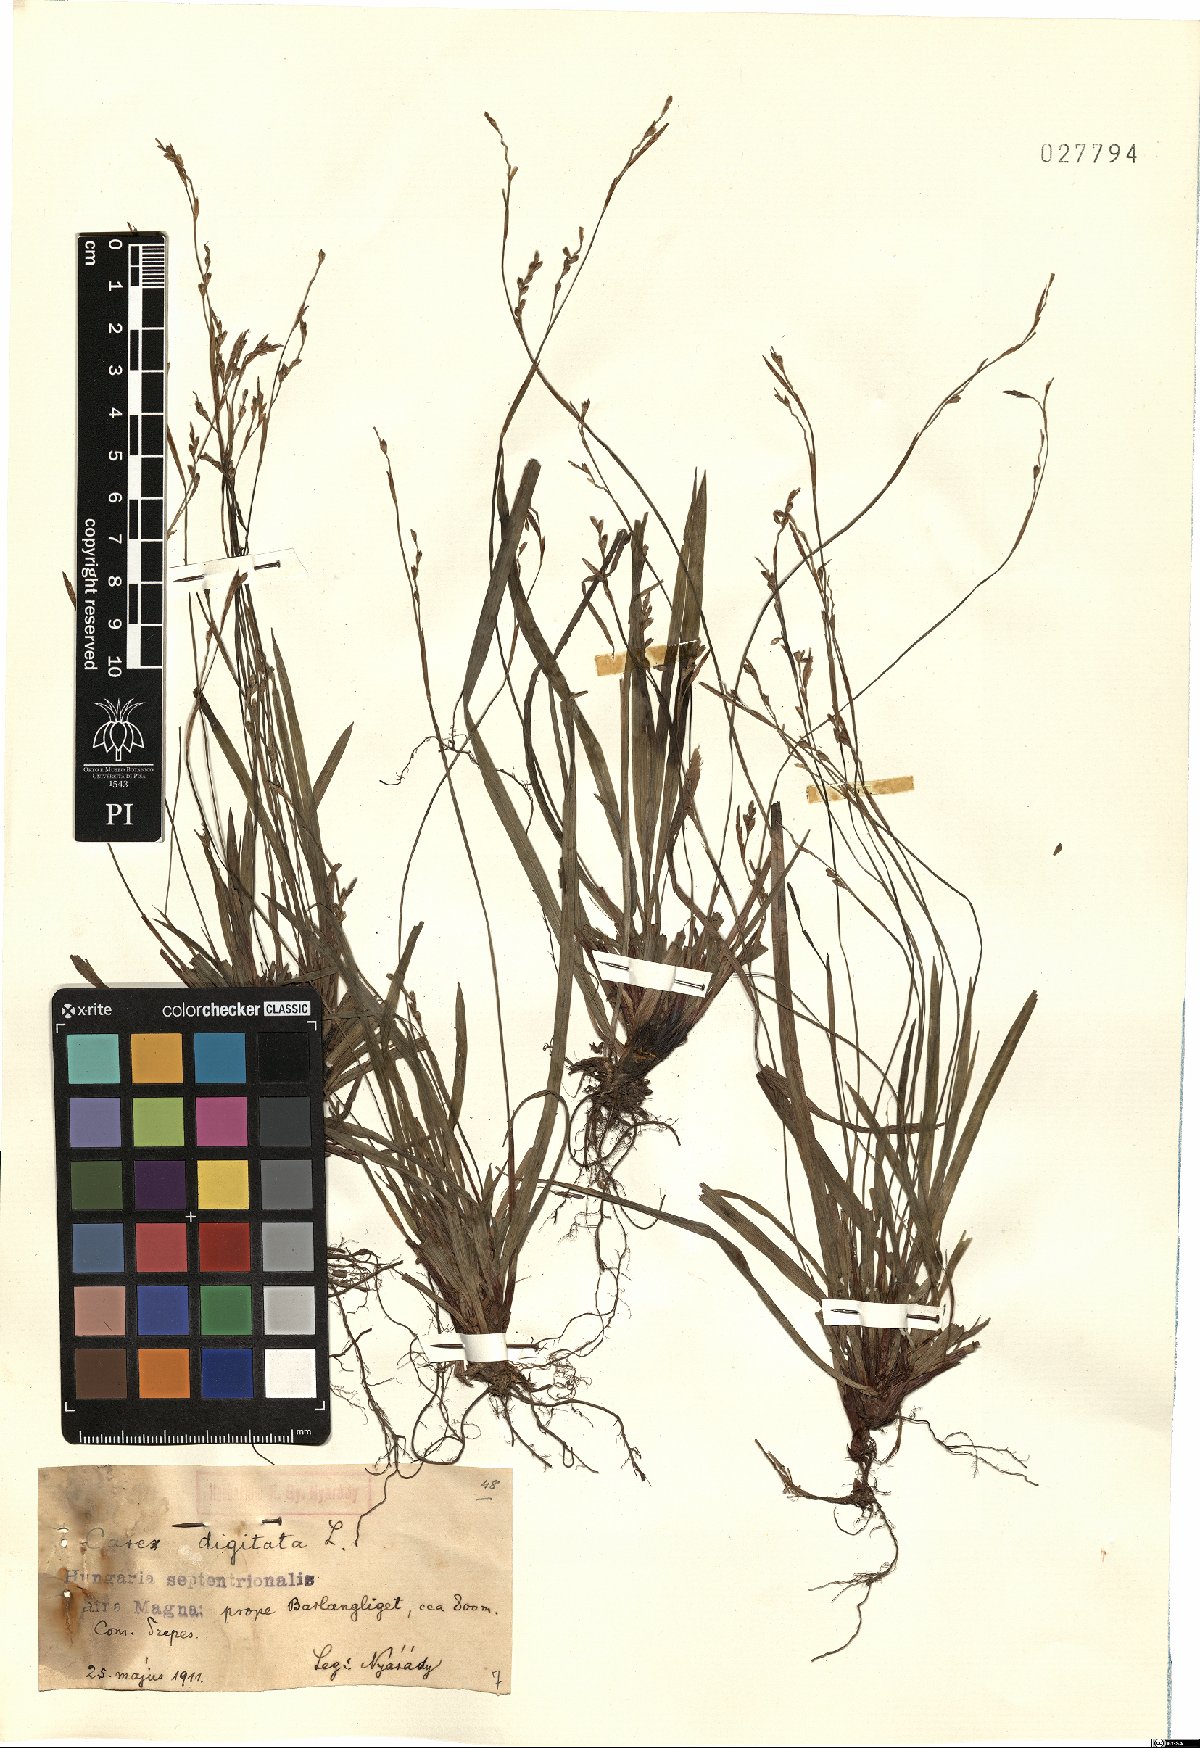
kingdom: Plantae
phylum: Tracheophyta
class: Liliopsida
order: Poales
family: Cyperaceae
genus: Carex
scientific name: Carex digitata
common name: Fingered sedge
